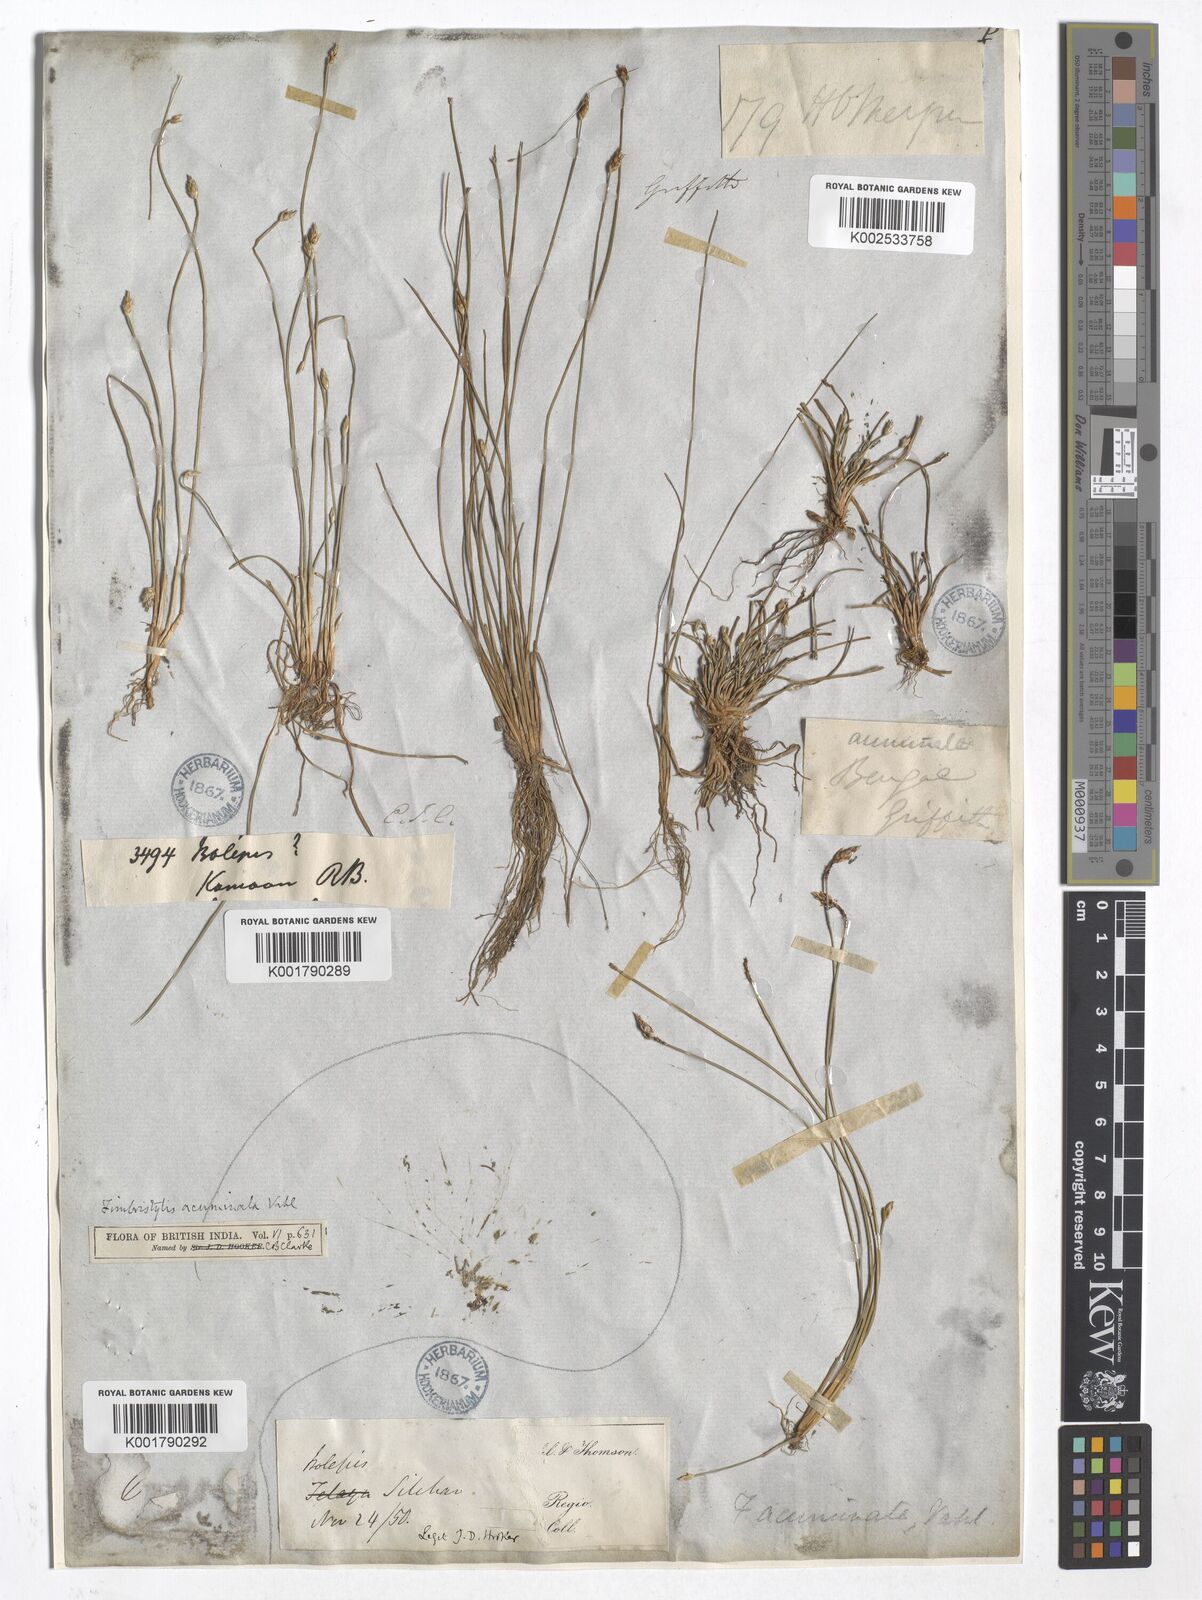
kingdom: Plantae
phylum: Tracheophyta
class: Liliopsida
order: Poales
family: Cyperaceae
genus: Fimbristylis
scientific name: Fimbristylis acuminata
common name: Pointed fimbristylis
